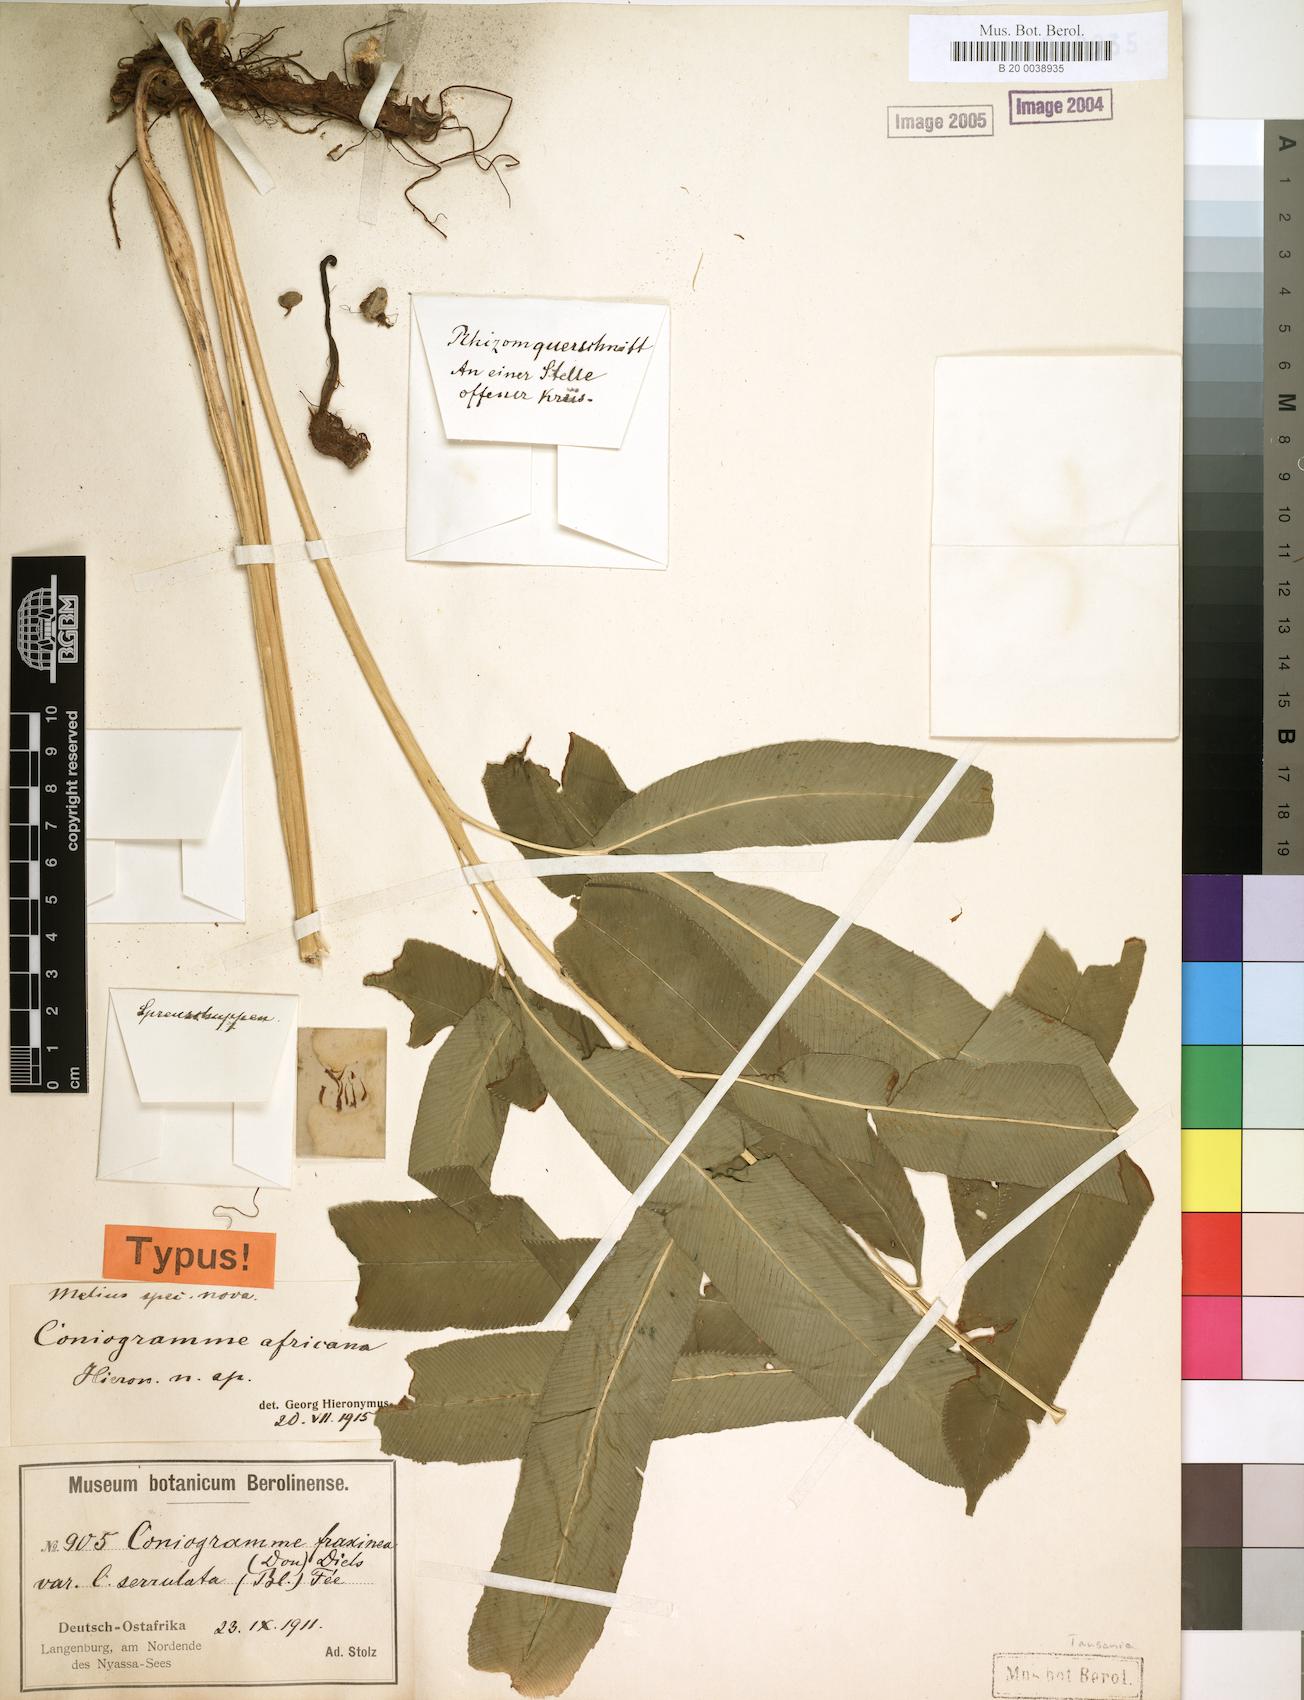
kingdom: Plantae
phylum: Tracheophyta
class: Polypodiopsida
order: Polypodiales
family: Pteridaceae
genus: Coniogramme
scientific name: Coniogramme africana
